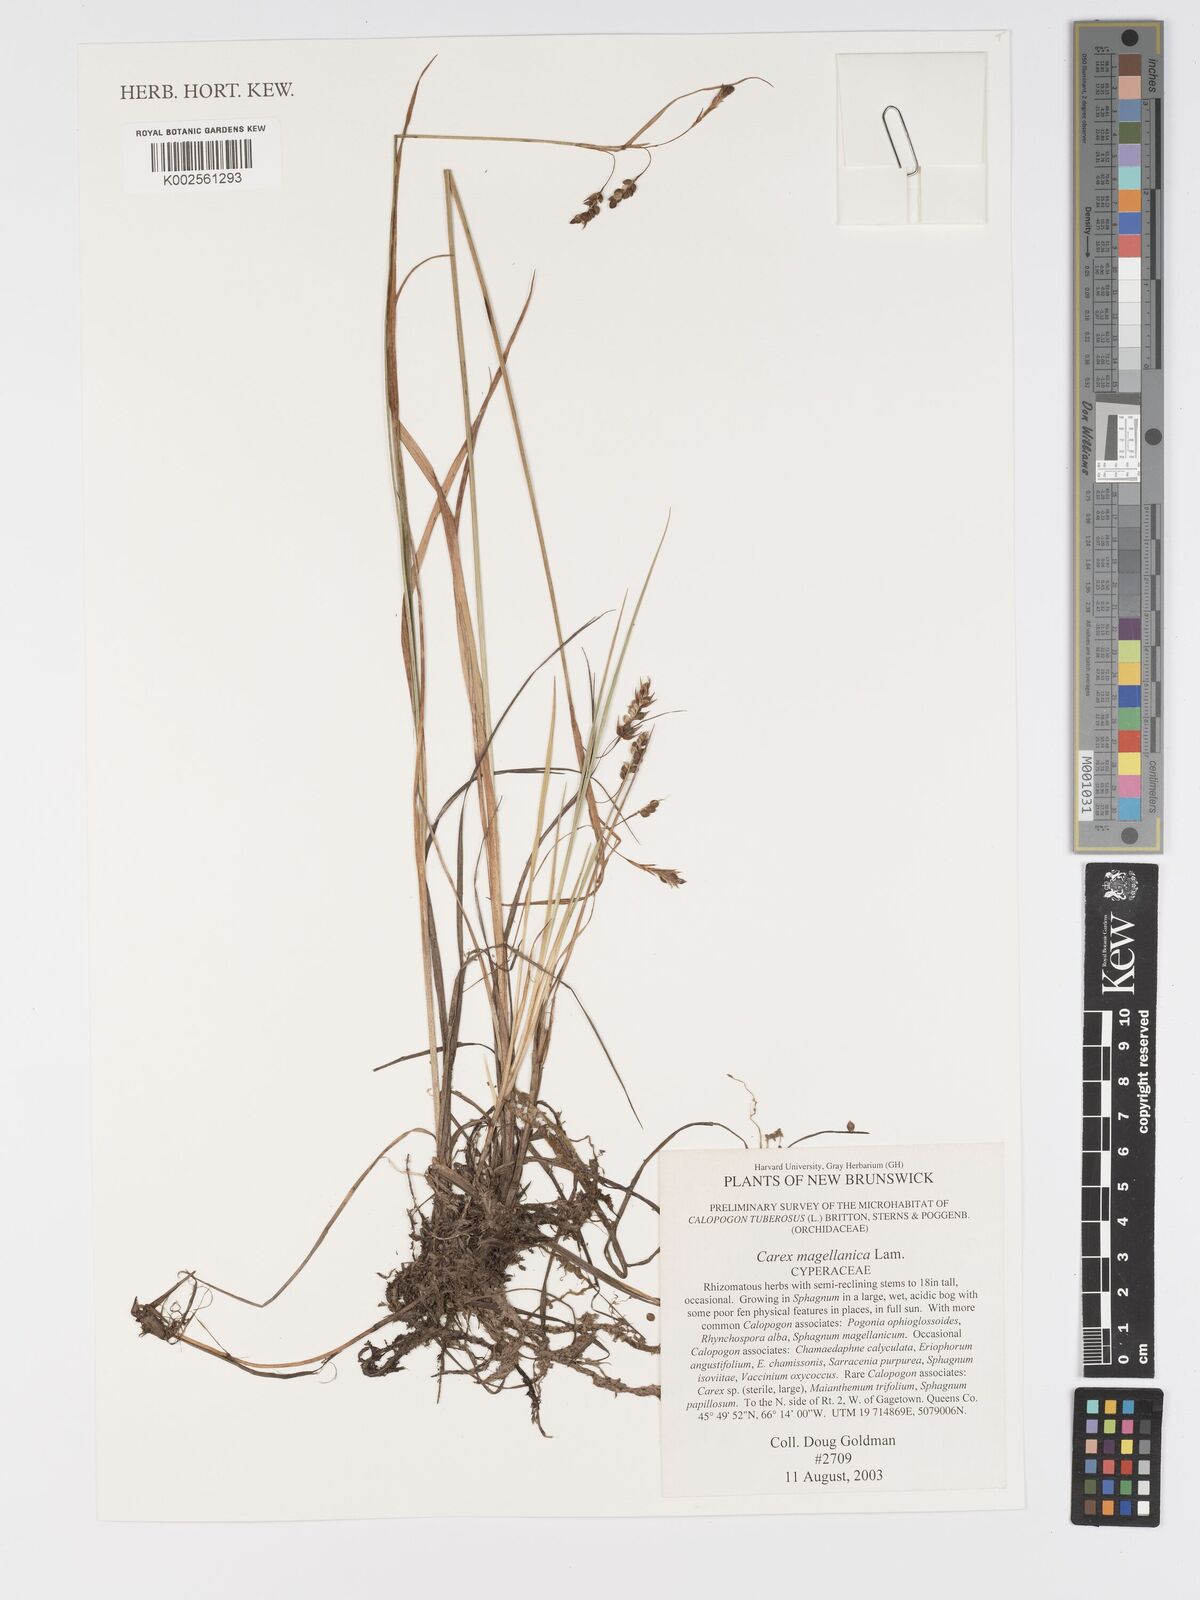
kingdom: Plantae
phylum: Tracheophyta
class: Liliopsida
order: Poales
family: Cyperaceae
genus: Carex
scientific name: Carex magellanica
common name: Bog sedge
